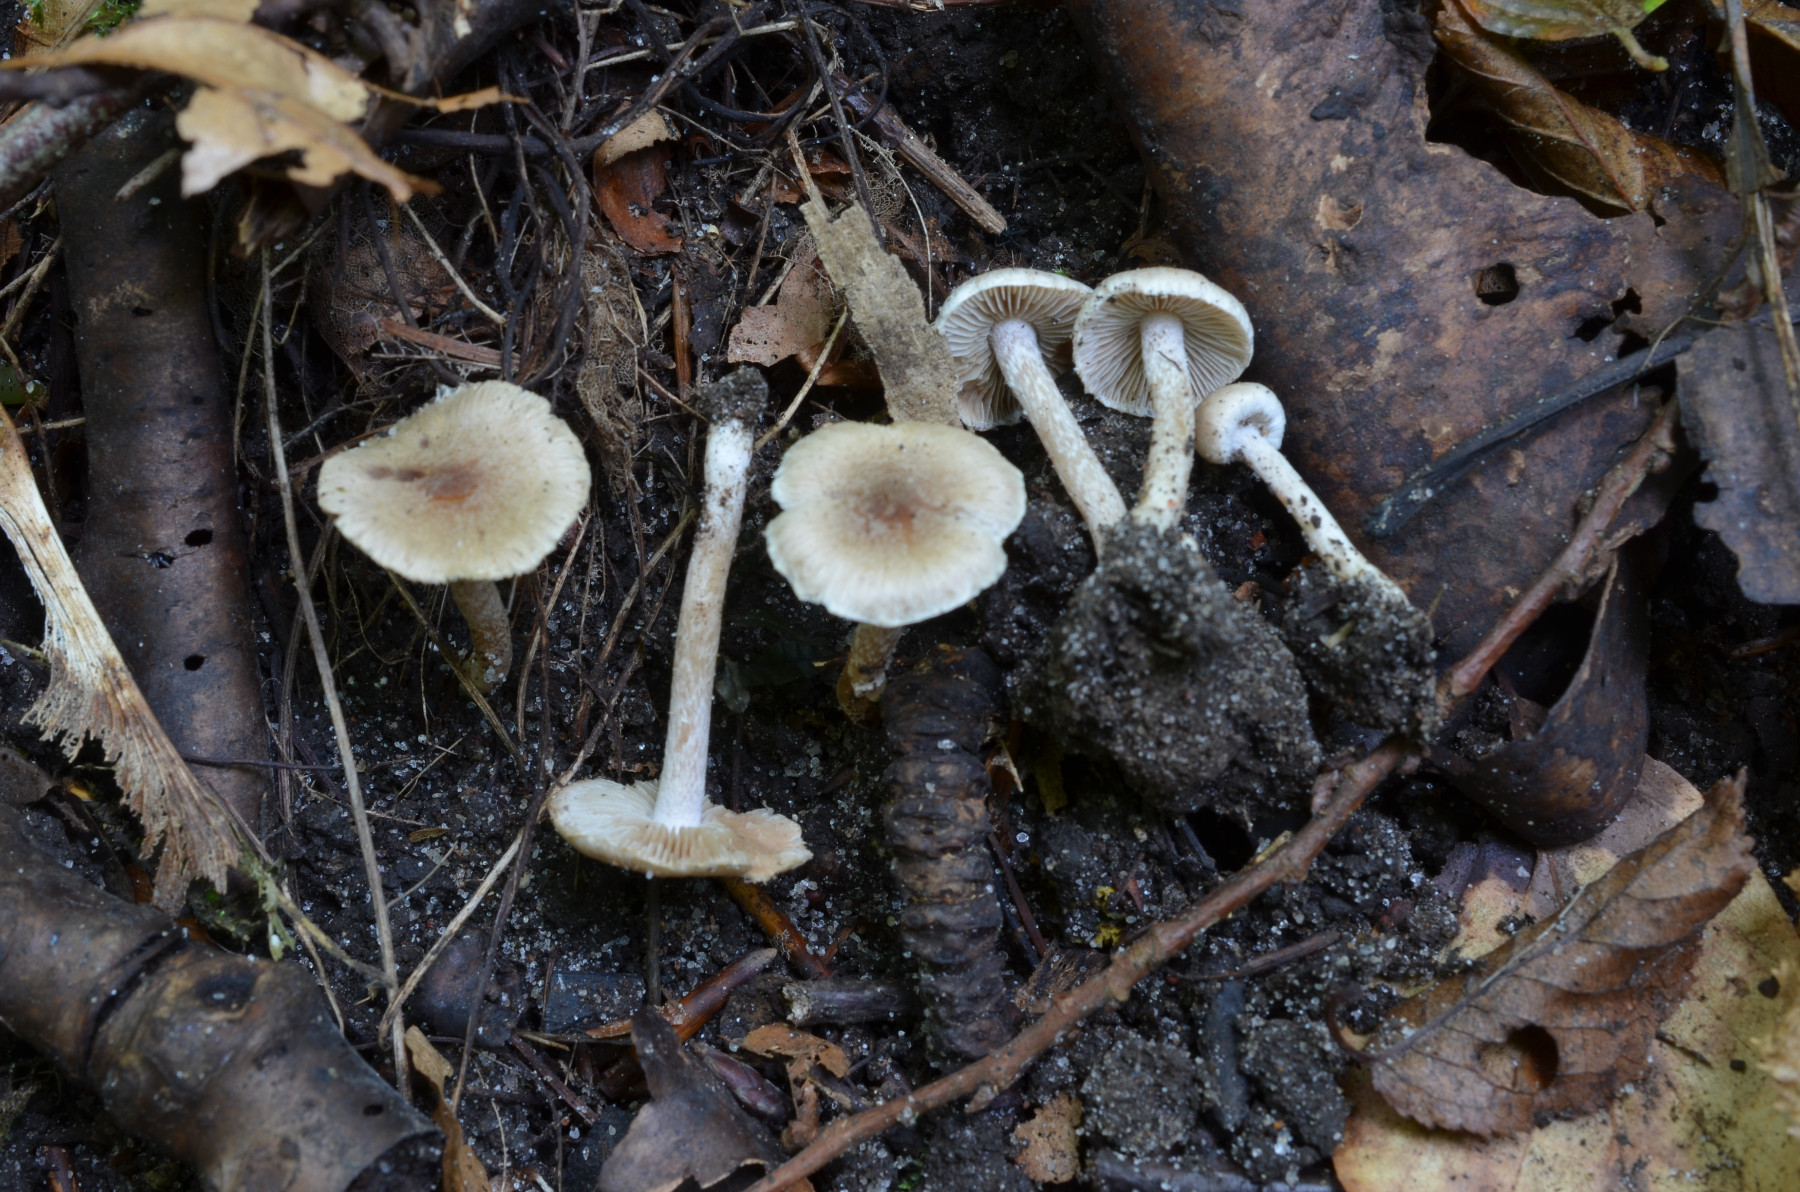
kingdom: Fungi
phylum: Basidiomycota
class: Agaricomycetes
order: Agaricales
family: Inocybaceae
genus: Inocybe
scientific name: Inocybe
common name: trævlhat
